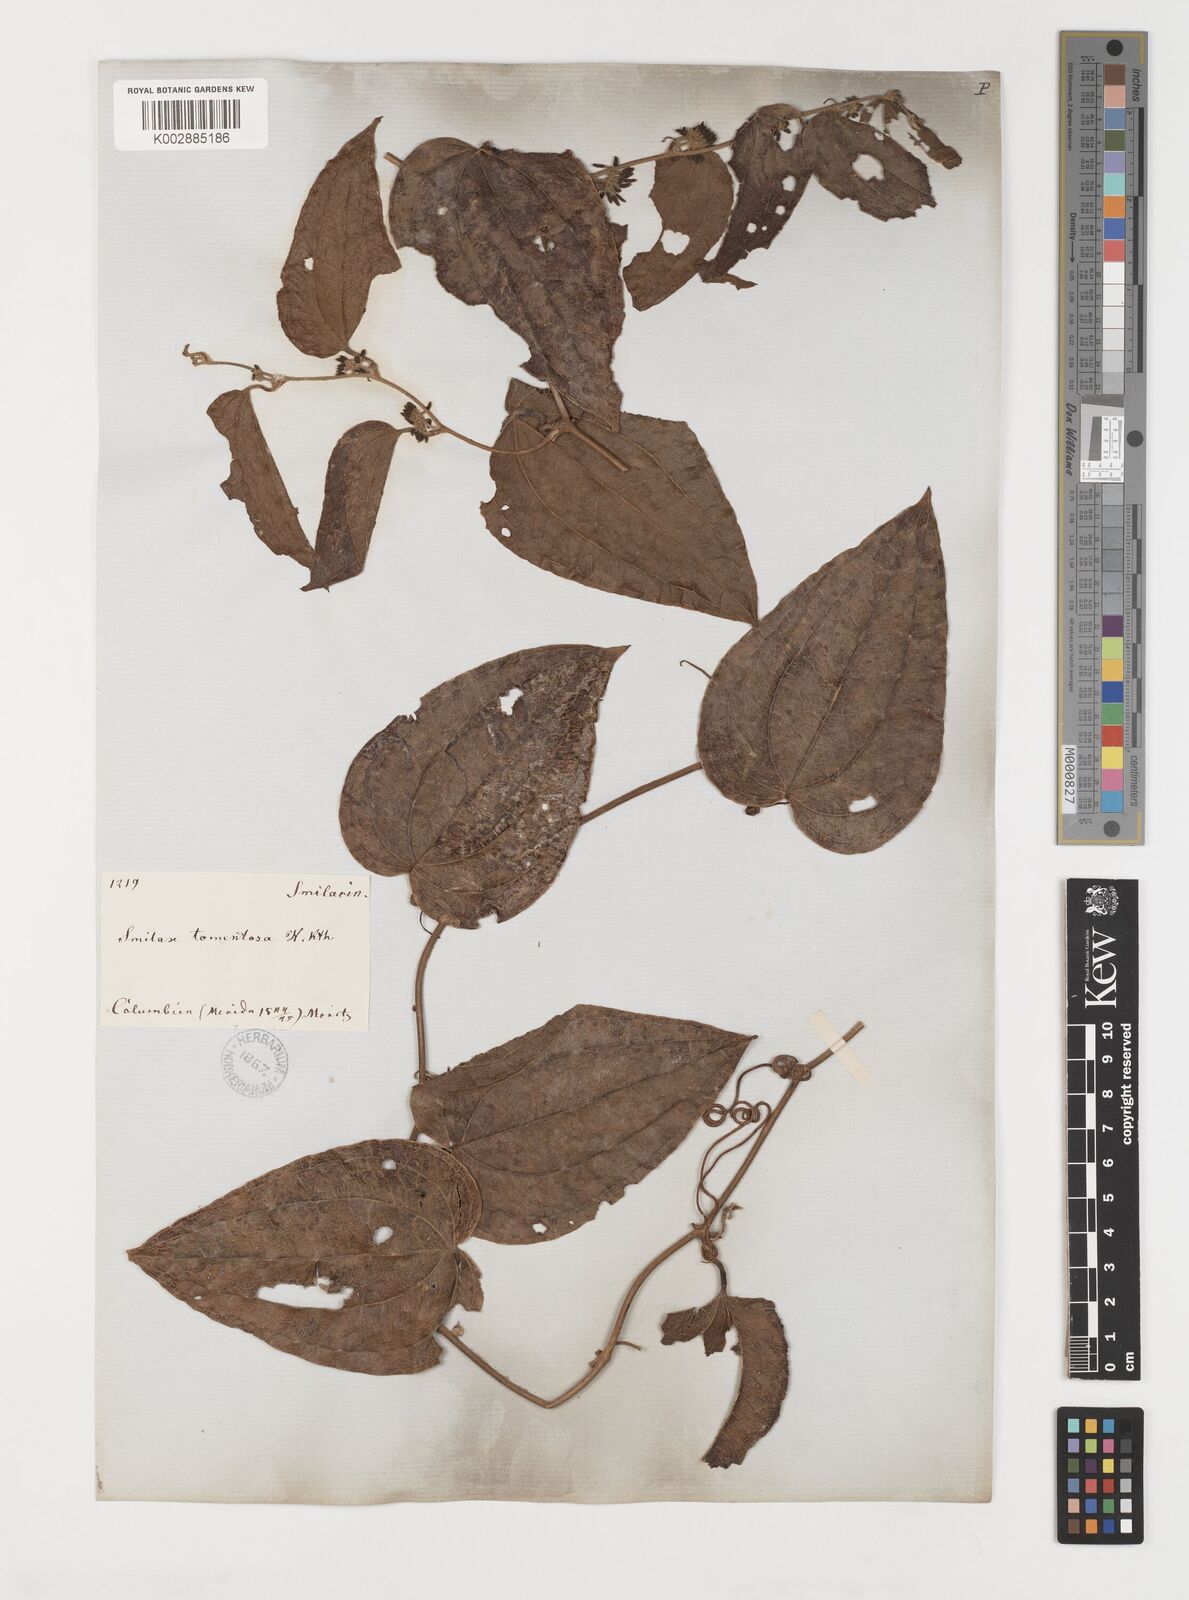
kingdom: Plantae
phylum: Tracheophyta
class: Liliopsida
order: Liliales
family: Smilacaceae
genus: Smilax
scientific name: Smilax tomentosa
